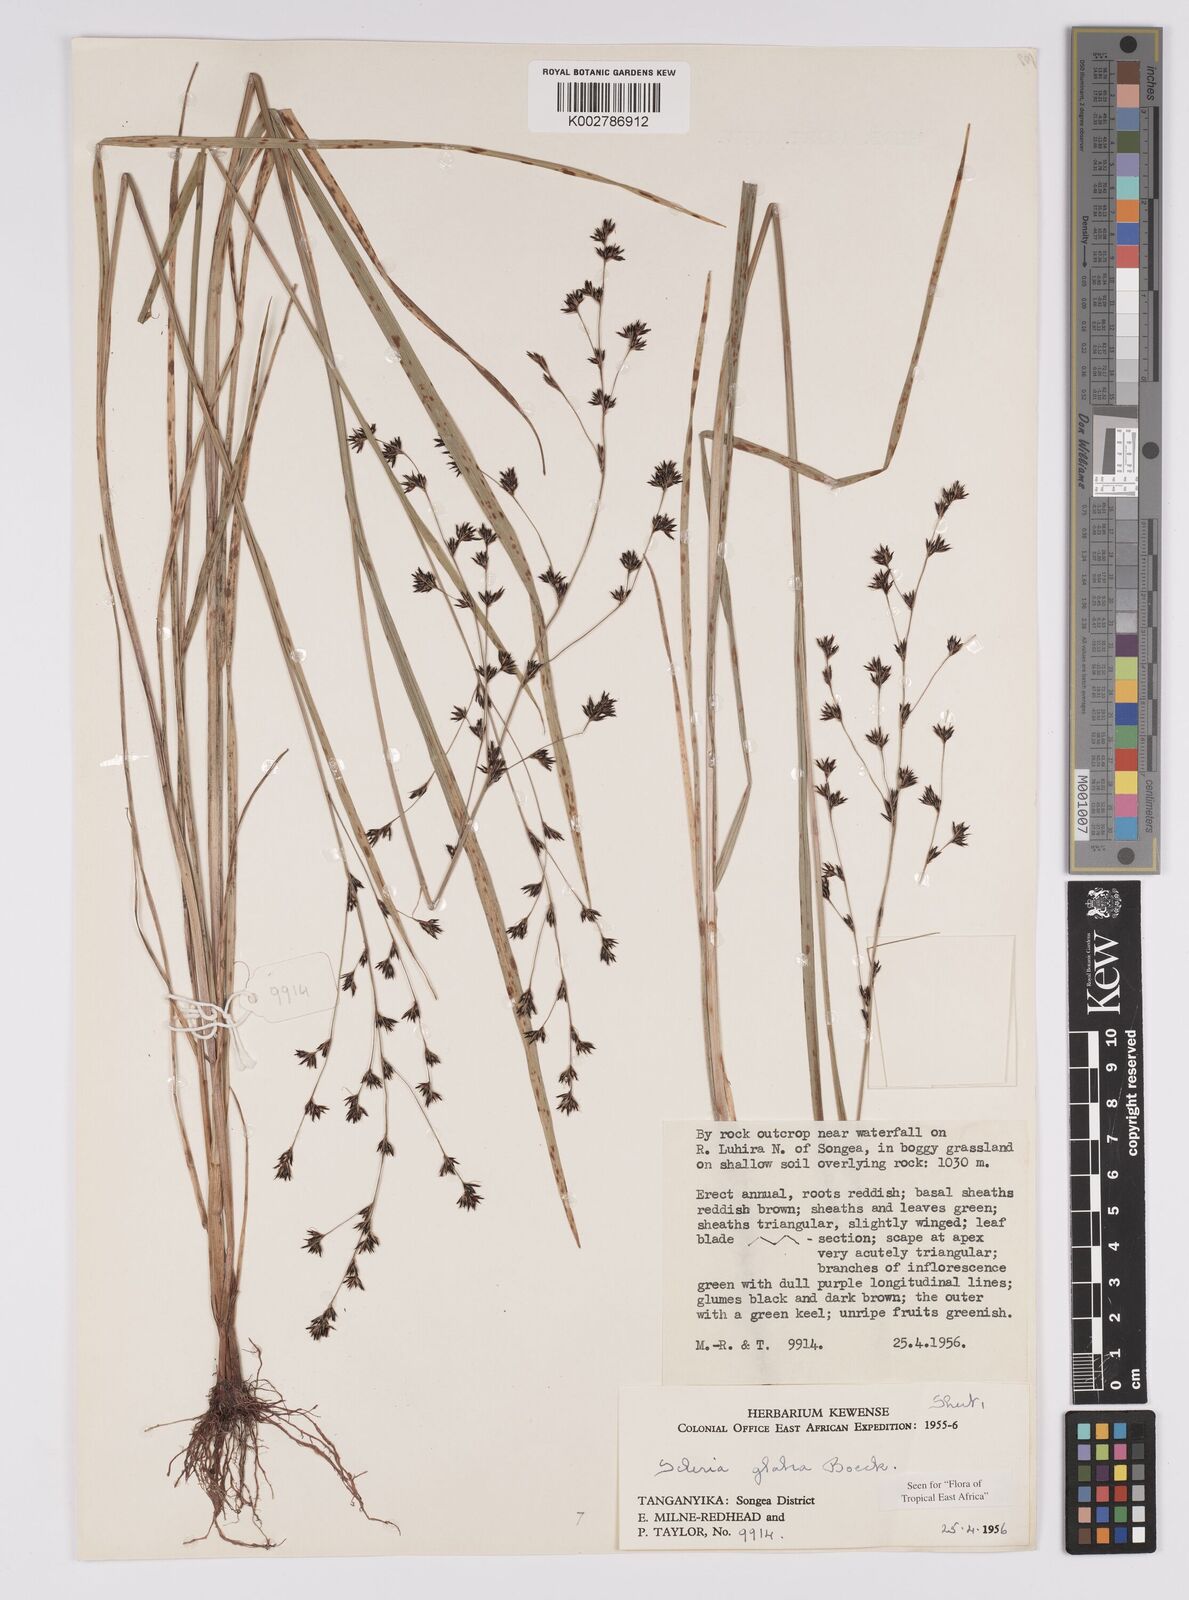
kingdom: Plantae
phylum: Tracheophyta
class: Liliopsida
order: Poales
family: Cyperaceae
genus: Scleria
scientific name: Scleria glabra
